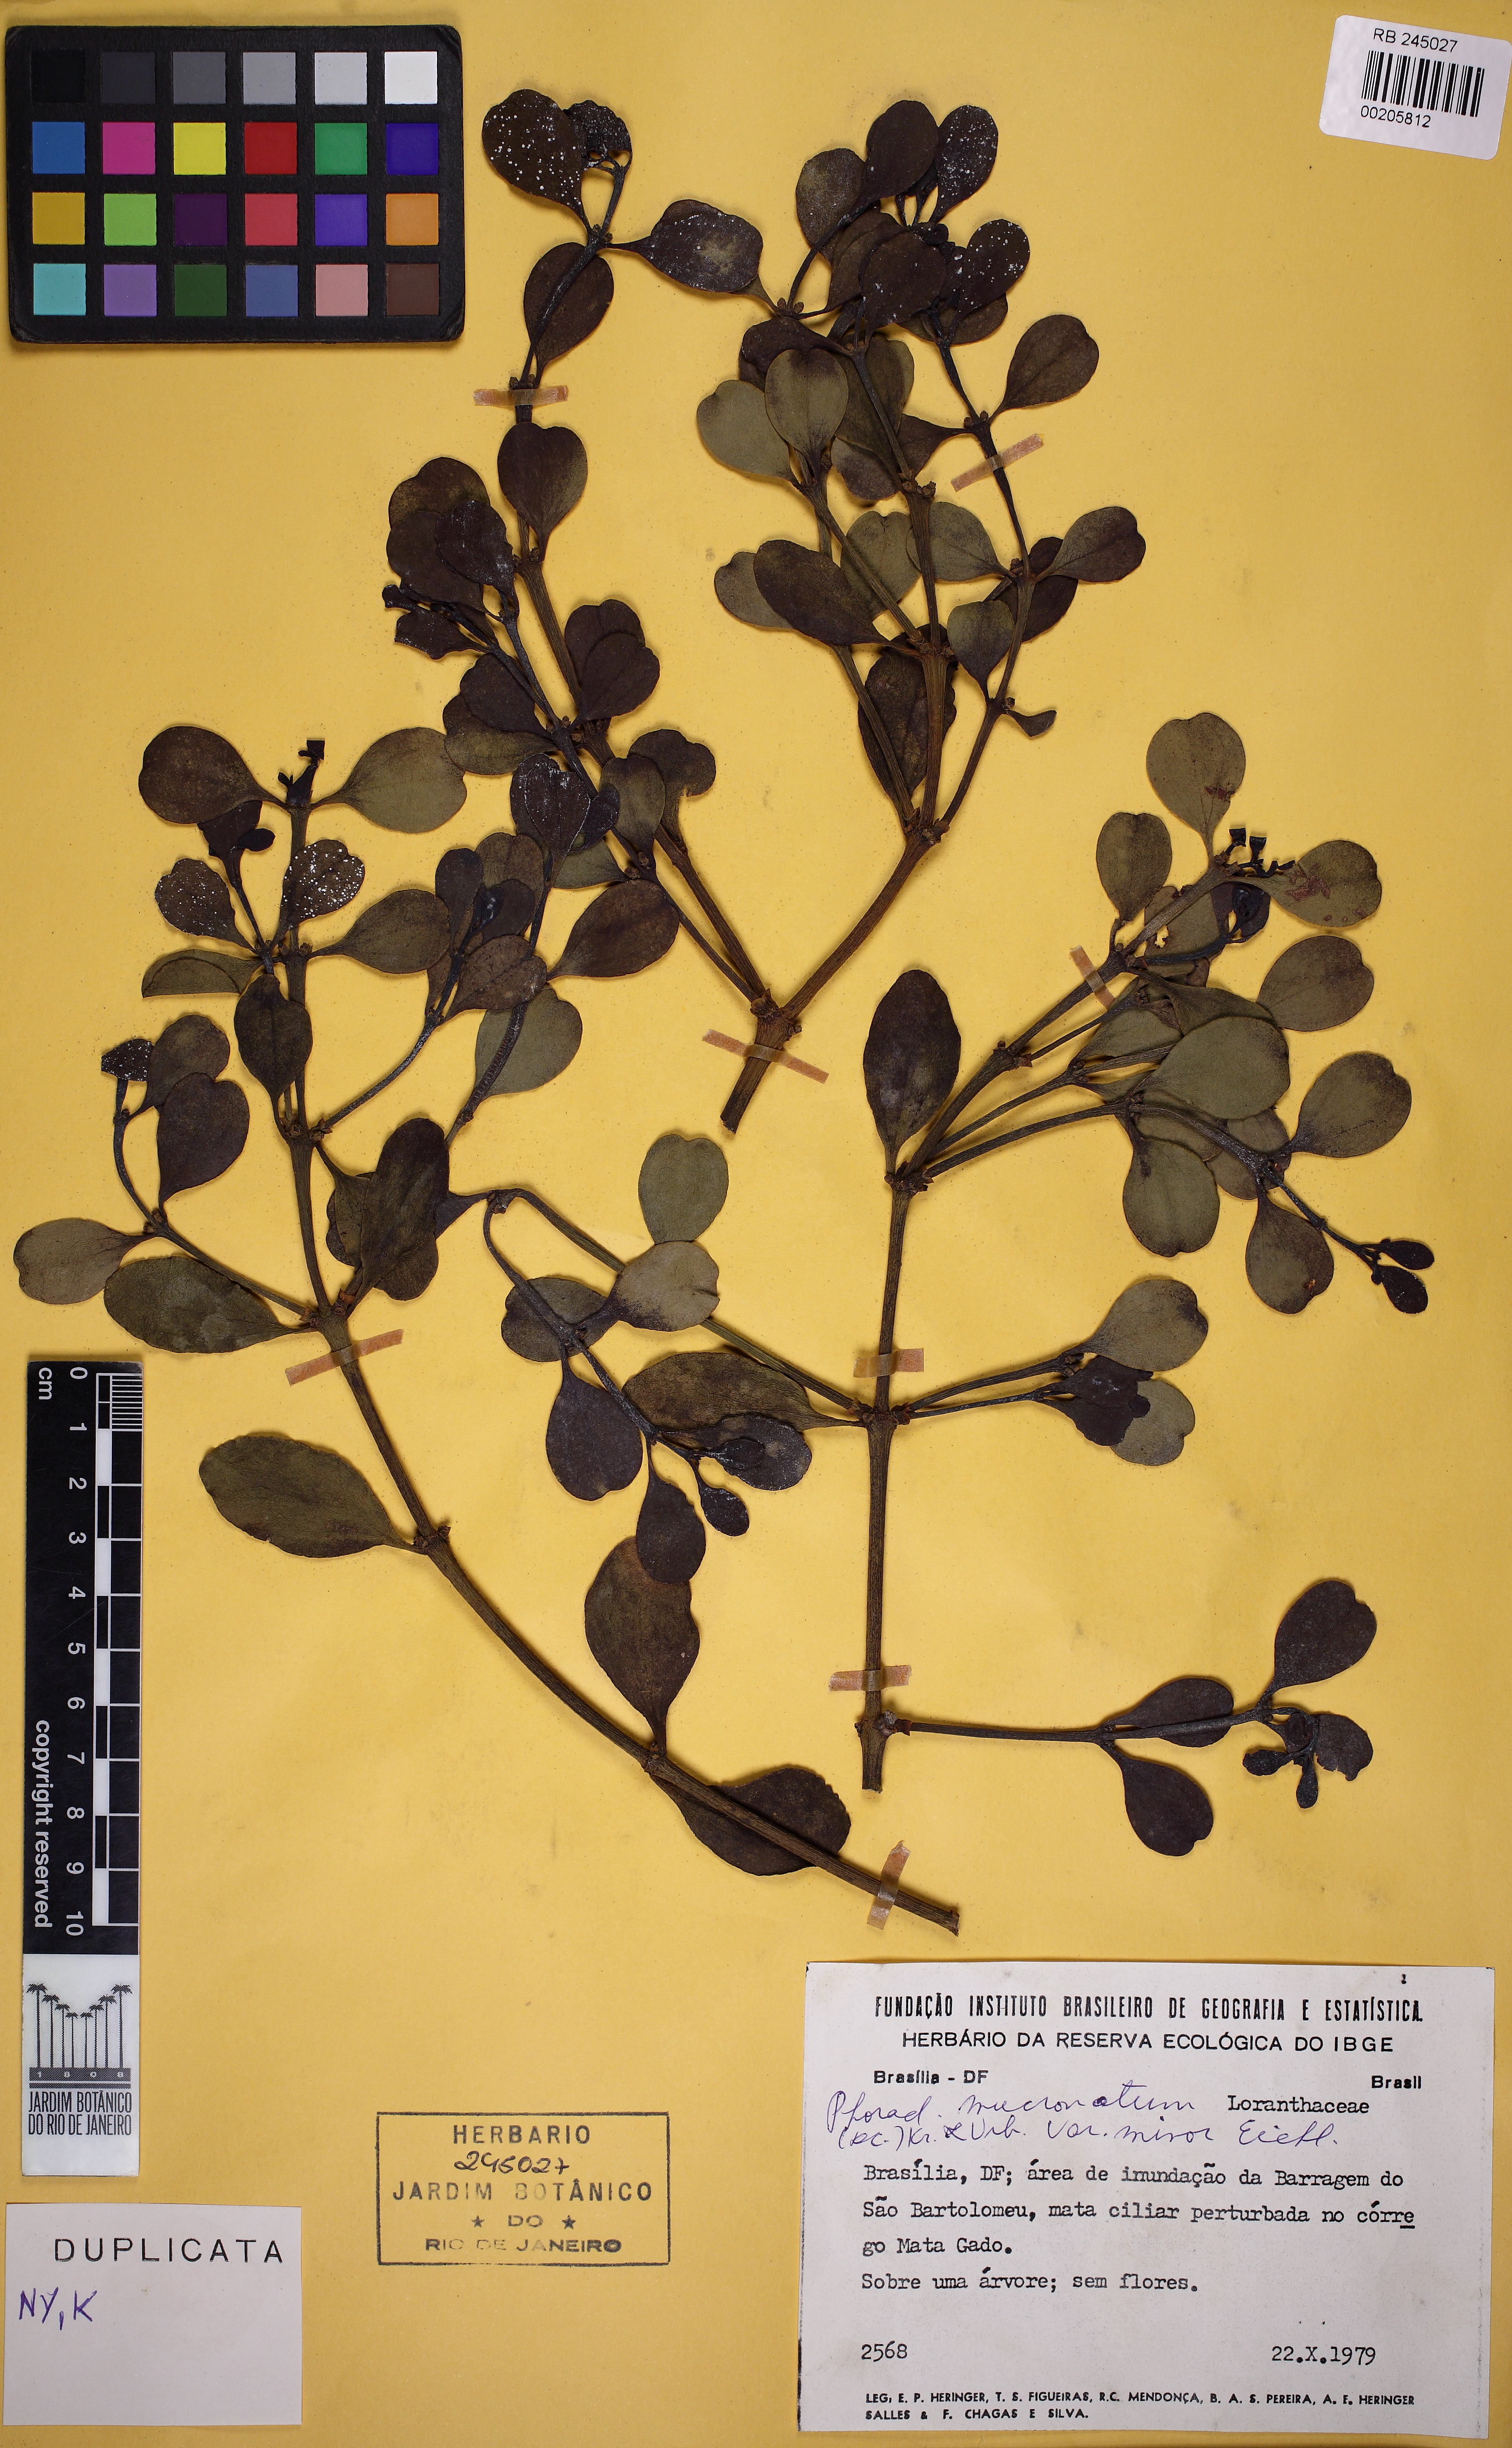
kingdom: Plantae
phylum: Tracheophyta
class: Magnoliopsida
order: Santalales
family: Viscaceae
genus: Phoradendron
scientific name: Phoradendron mucronatum
